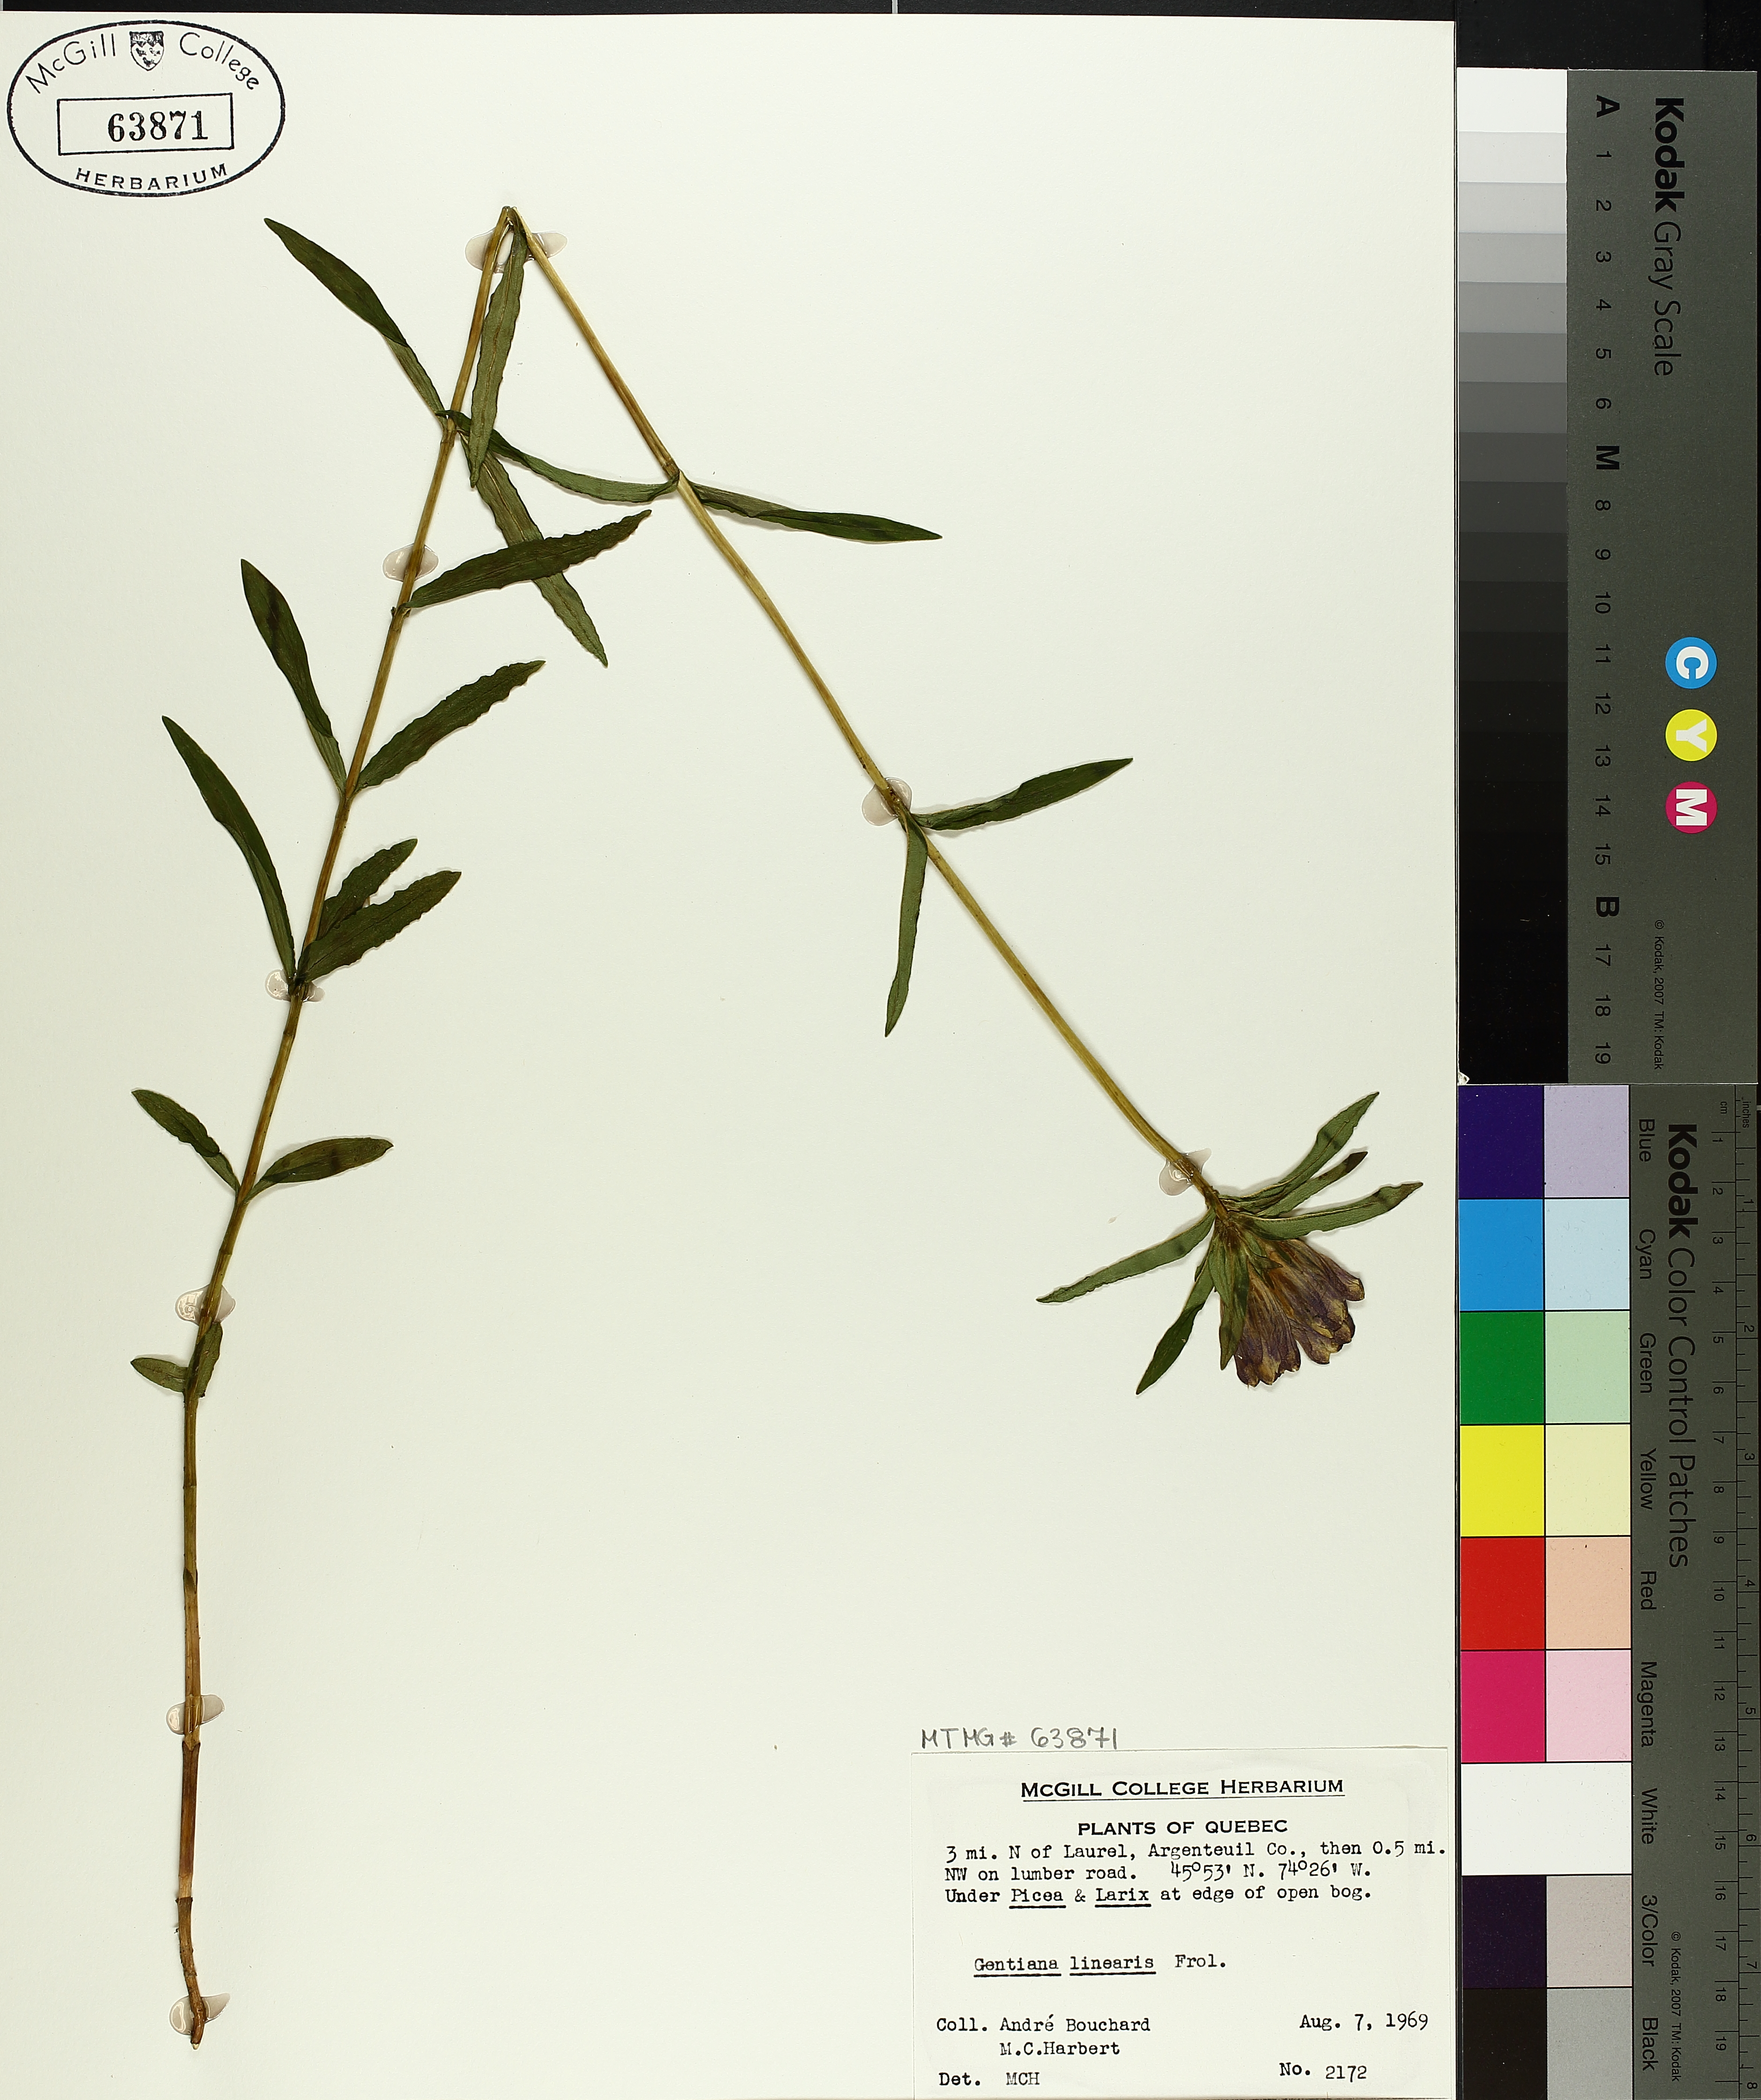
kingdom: Plantae
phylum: Tracheophyta
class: Magnoliopsida
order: Gentianales
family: Gentianaceae
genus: Gentiana
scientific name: Gentiana linearis
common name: Bastard gentian
